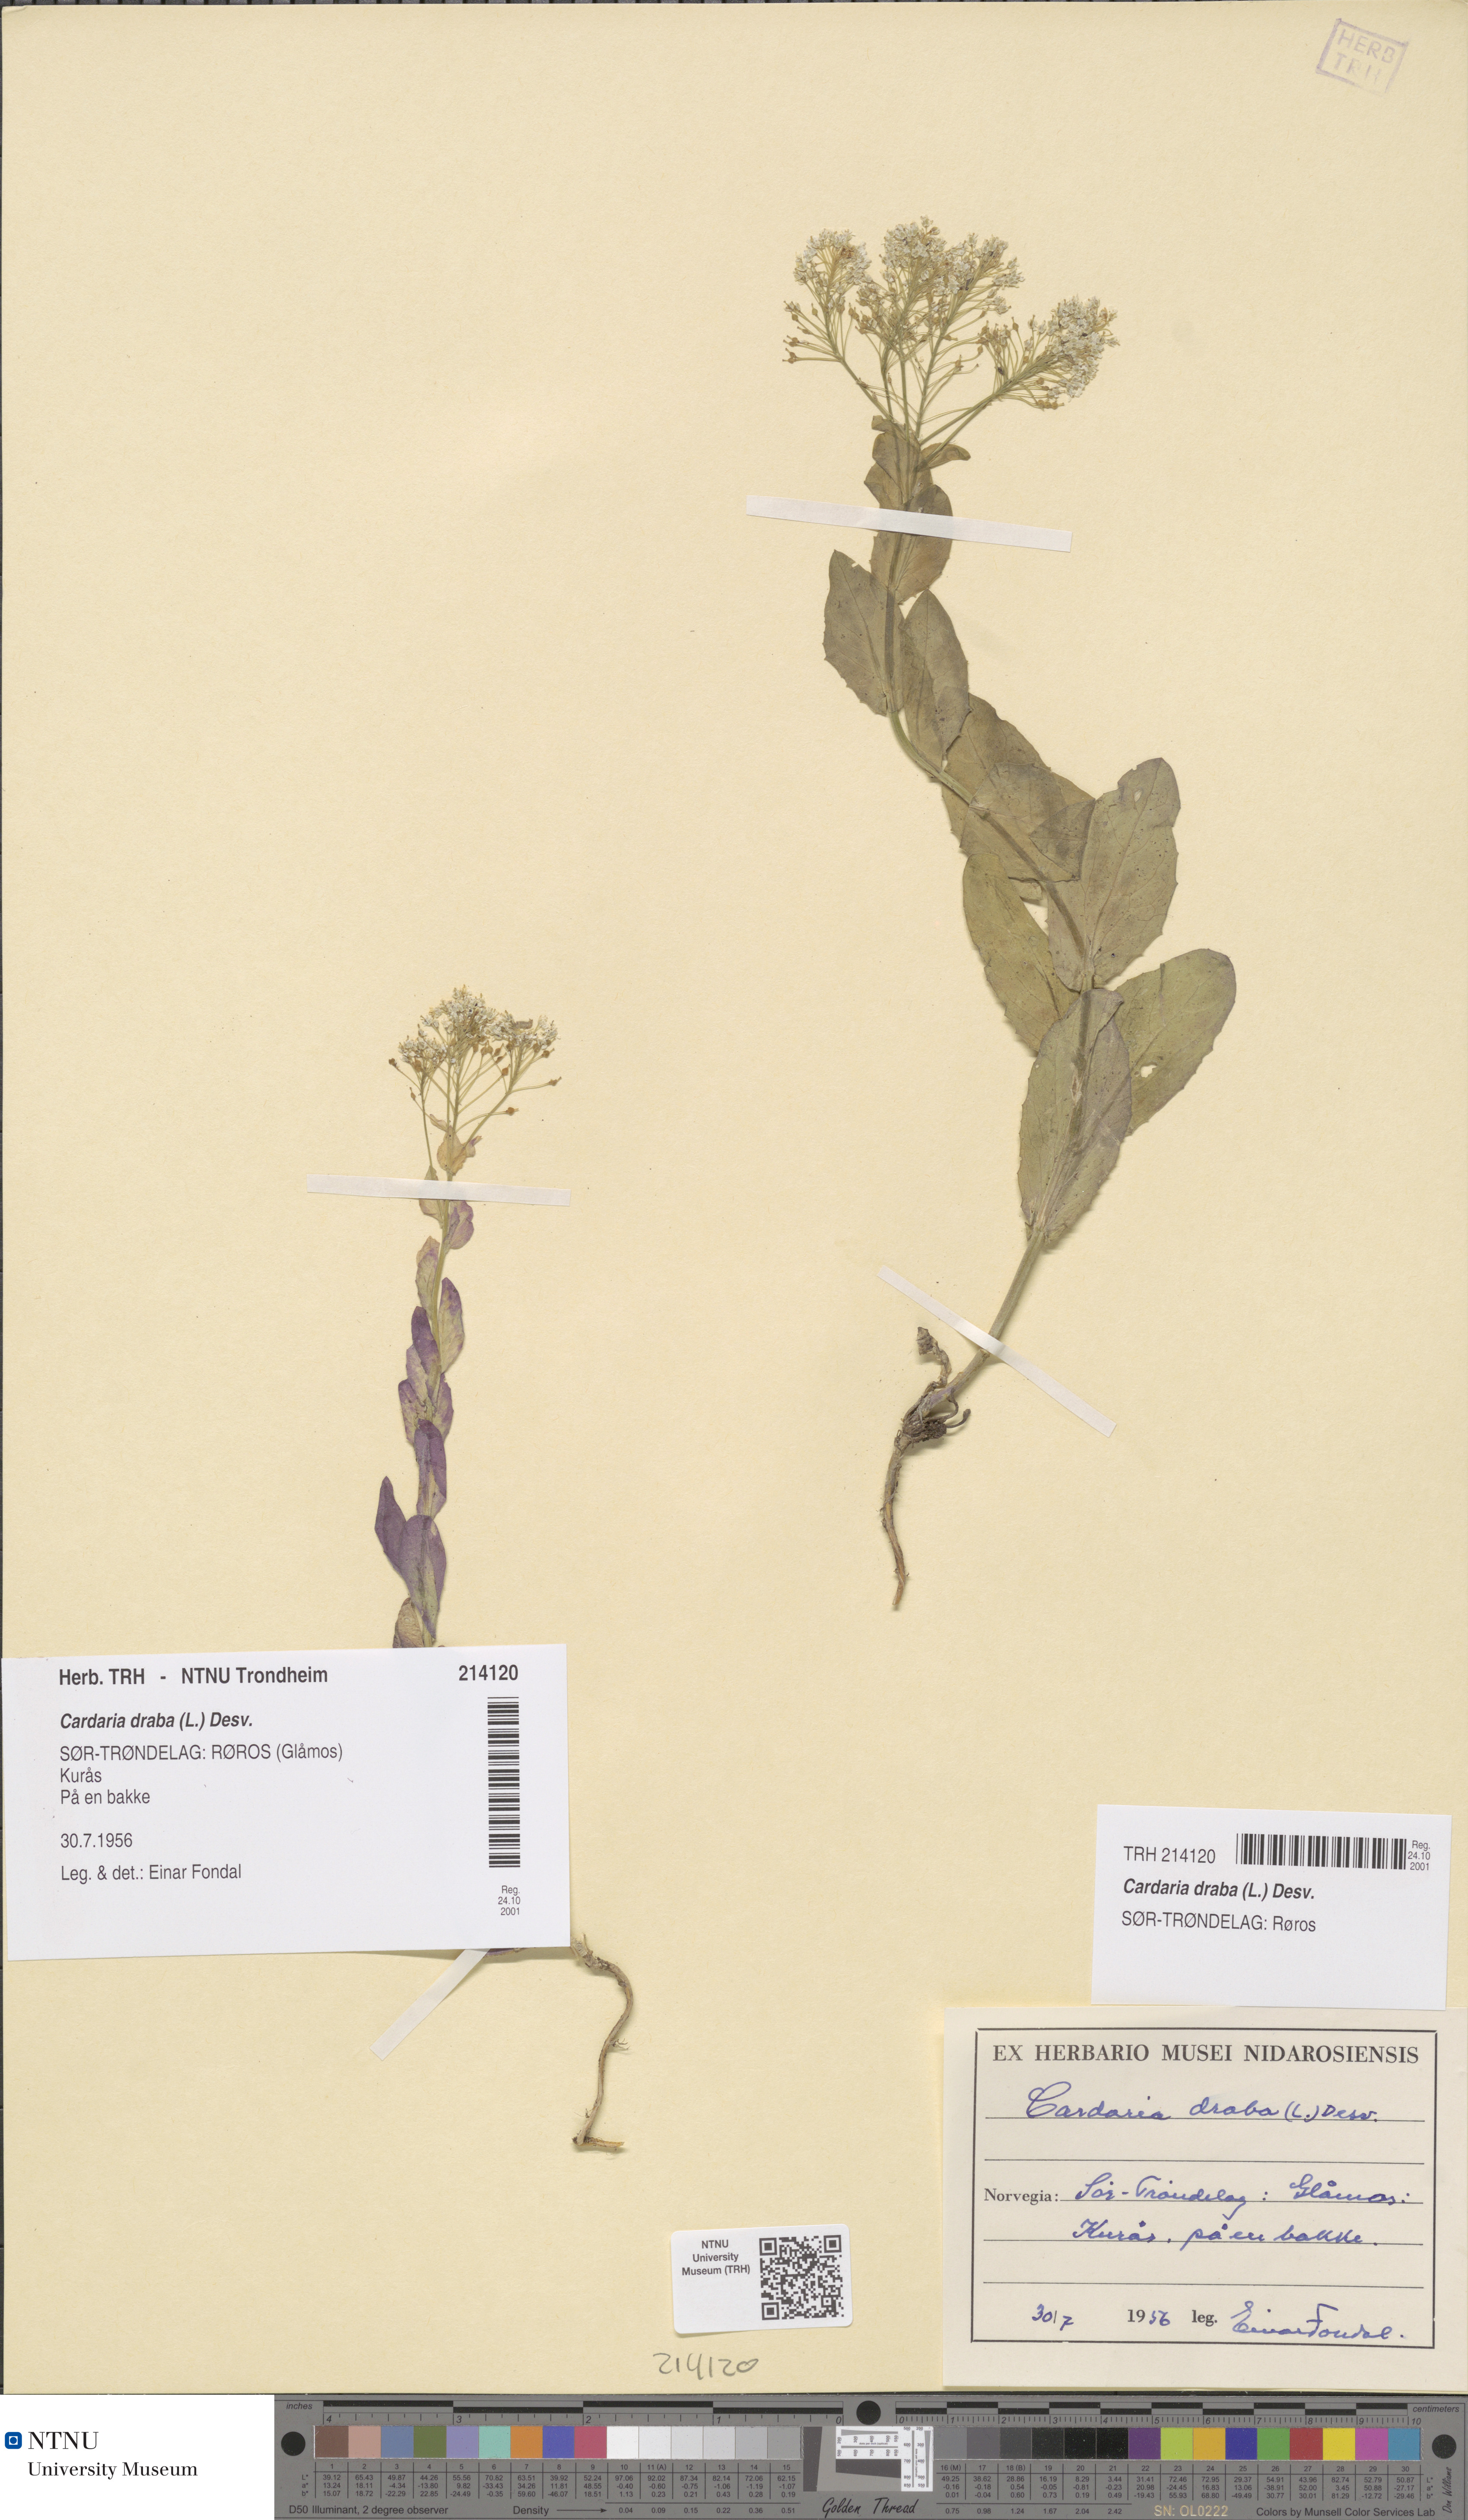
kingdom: Plantae
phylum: Tracheophyta
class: Magnoliopsida
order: Brassicales
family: Brassicaceae
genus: Lepidium
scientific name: Lepidium draba
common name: Hoary cress
